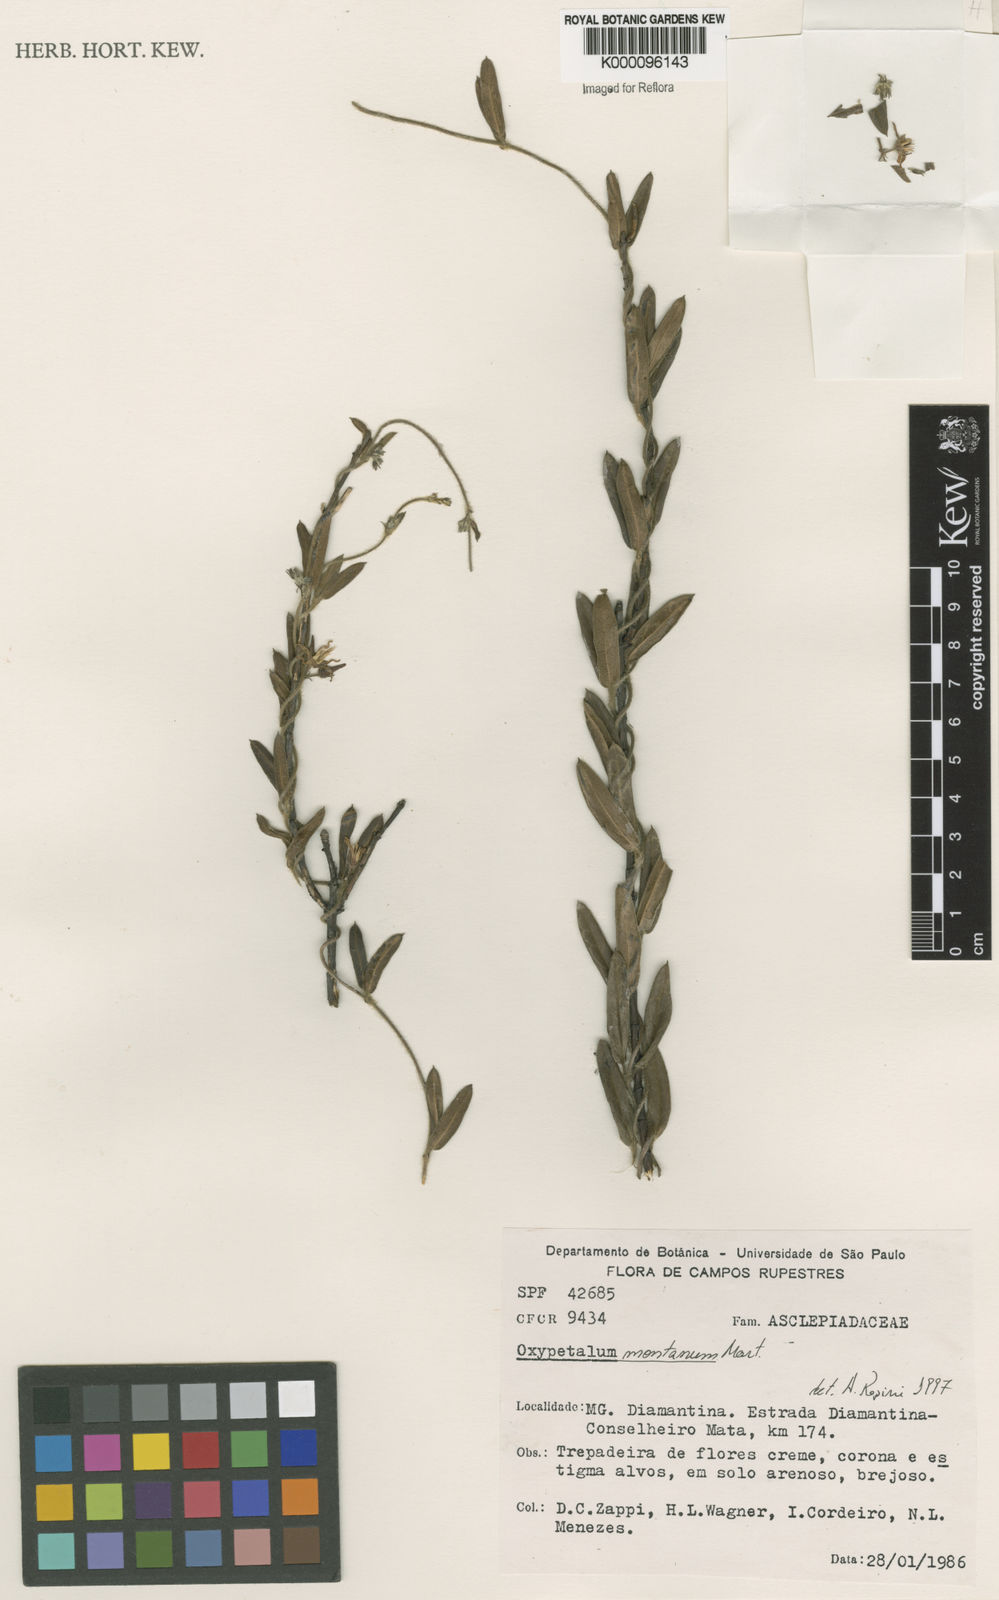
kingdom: Plantae
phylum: Tracheophyta
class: Magnoliopsida
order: Gentianales
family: Apocynaceae
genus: Oxypetalum
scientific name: Oxypetalum montanum
